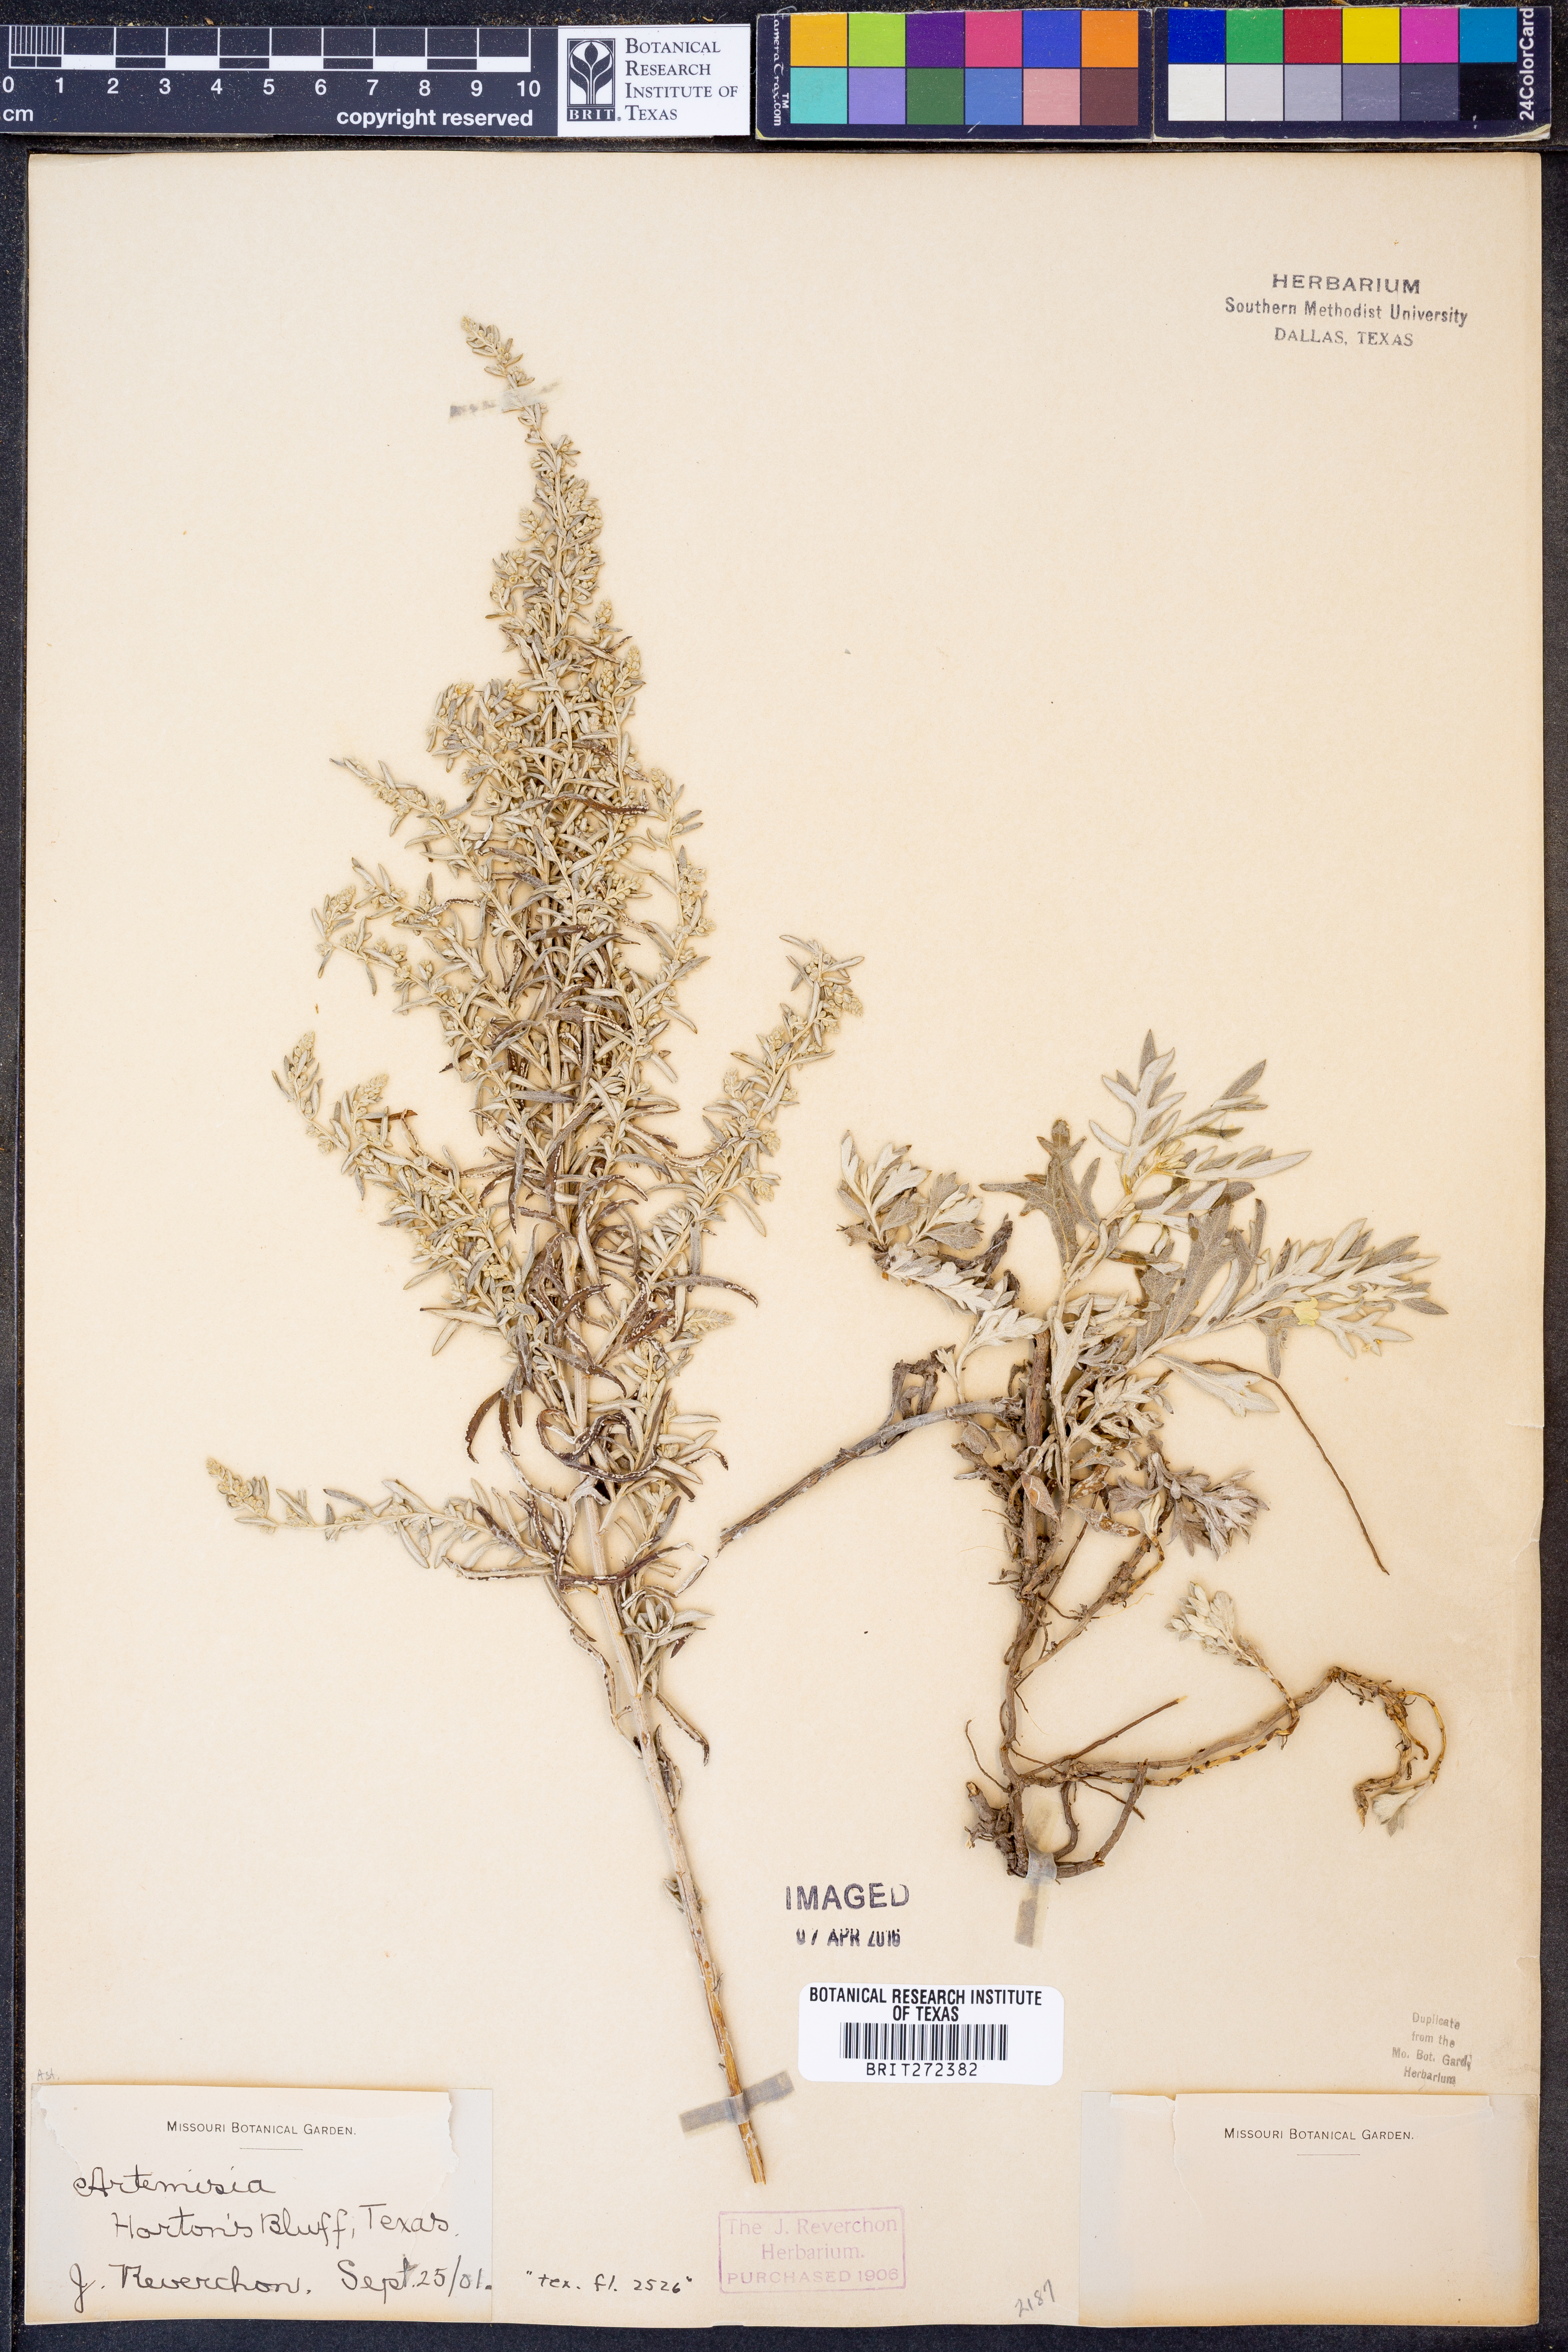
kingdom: Plantae
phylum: Tracheophyta
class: Magnoliopsida
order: Asterales
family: Asteraceae
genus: Artemisia
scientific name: Artemisia
